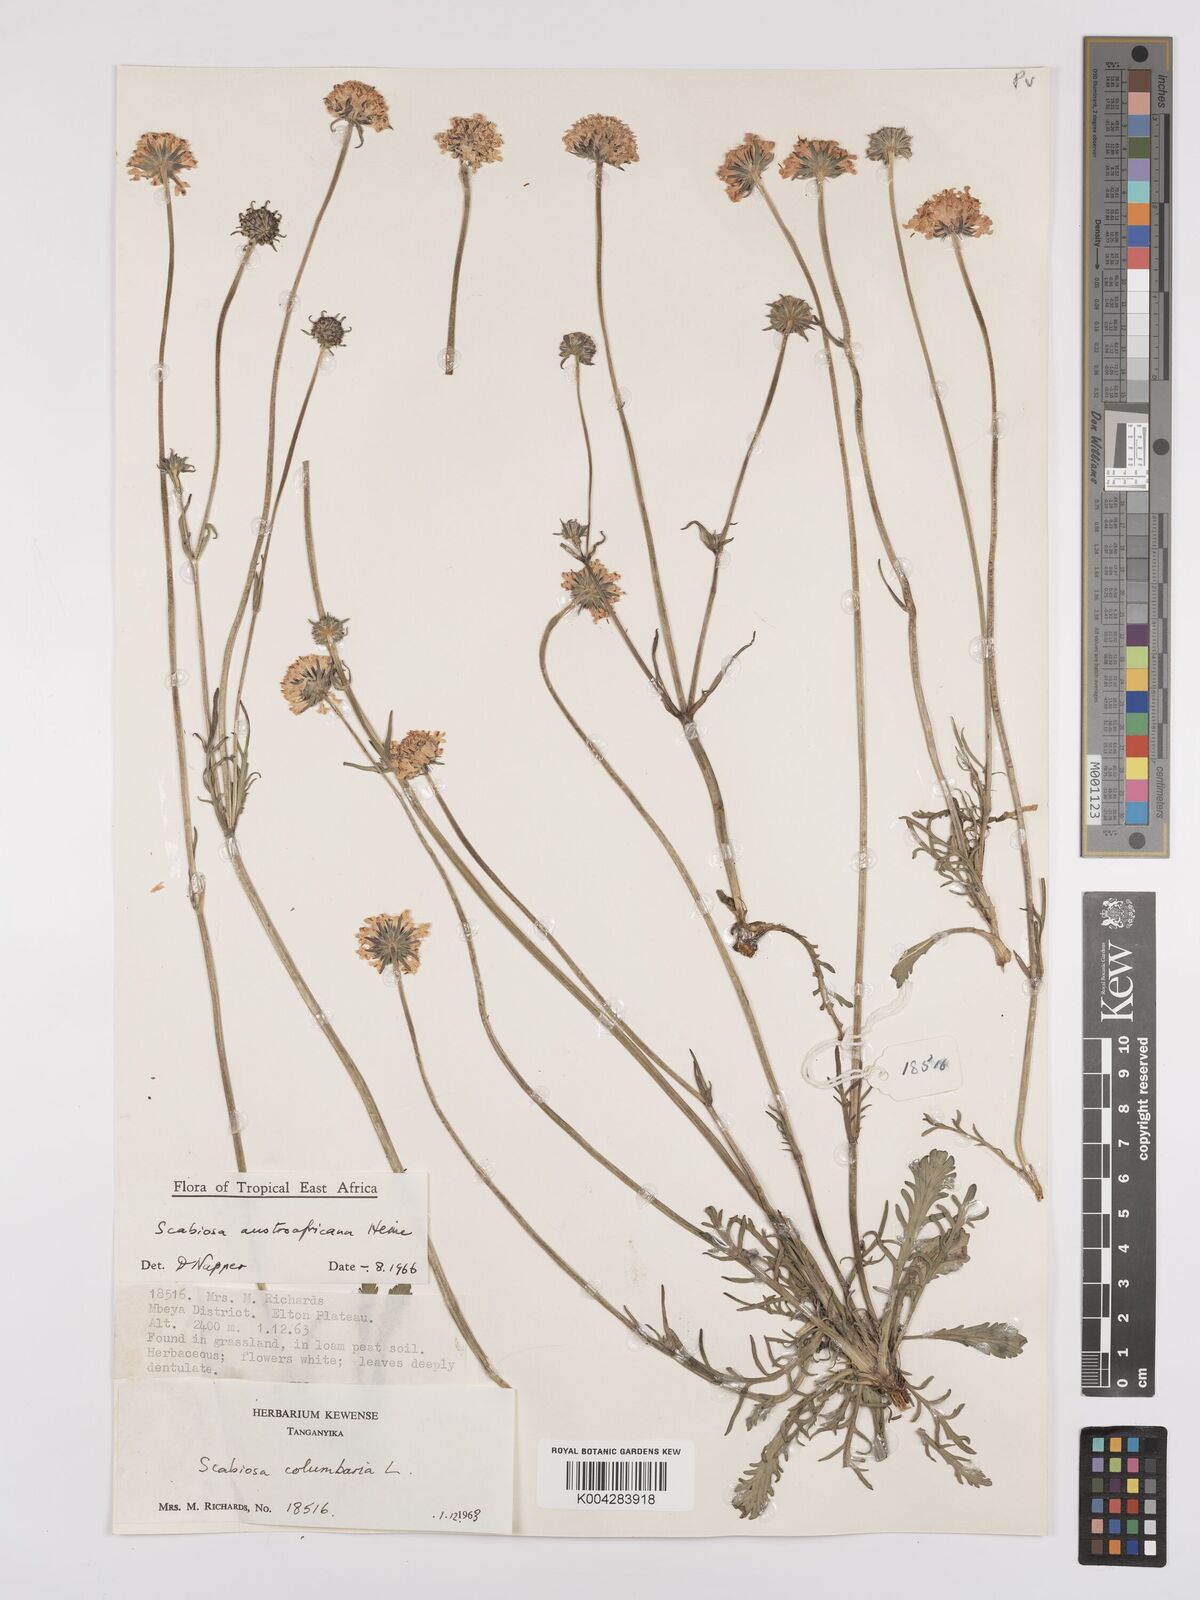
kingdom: Plantae
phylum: Tracheophyta
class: Magnoliopsida
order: Dipsacales
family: Caprifoliaceae
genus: Scabiosa
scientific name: Scabiosa austroafricana
